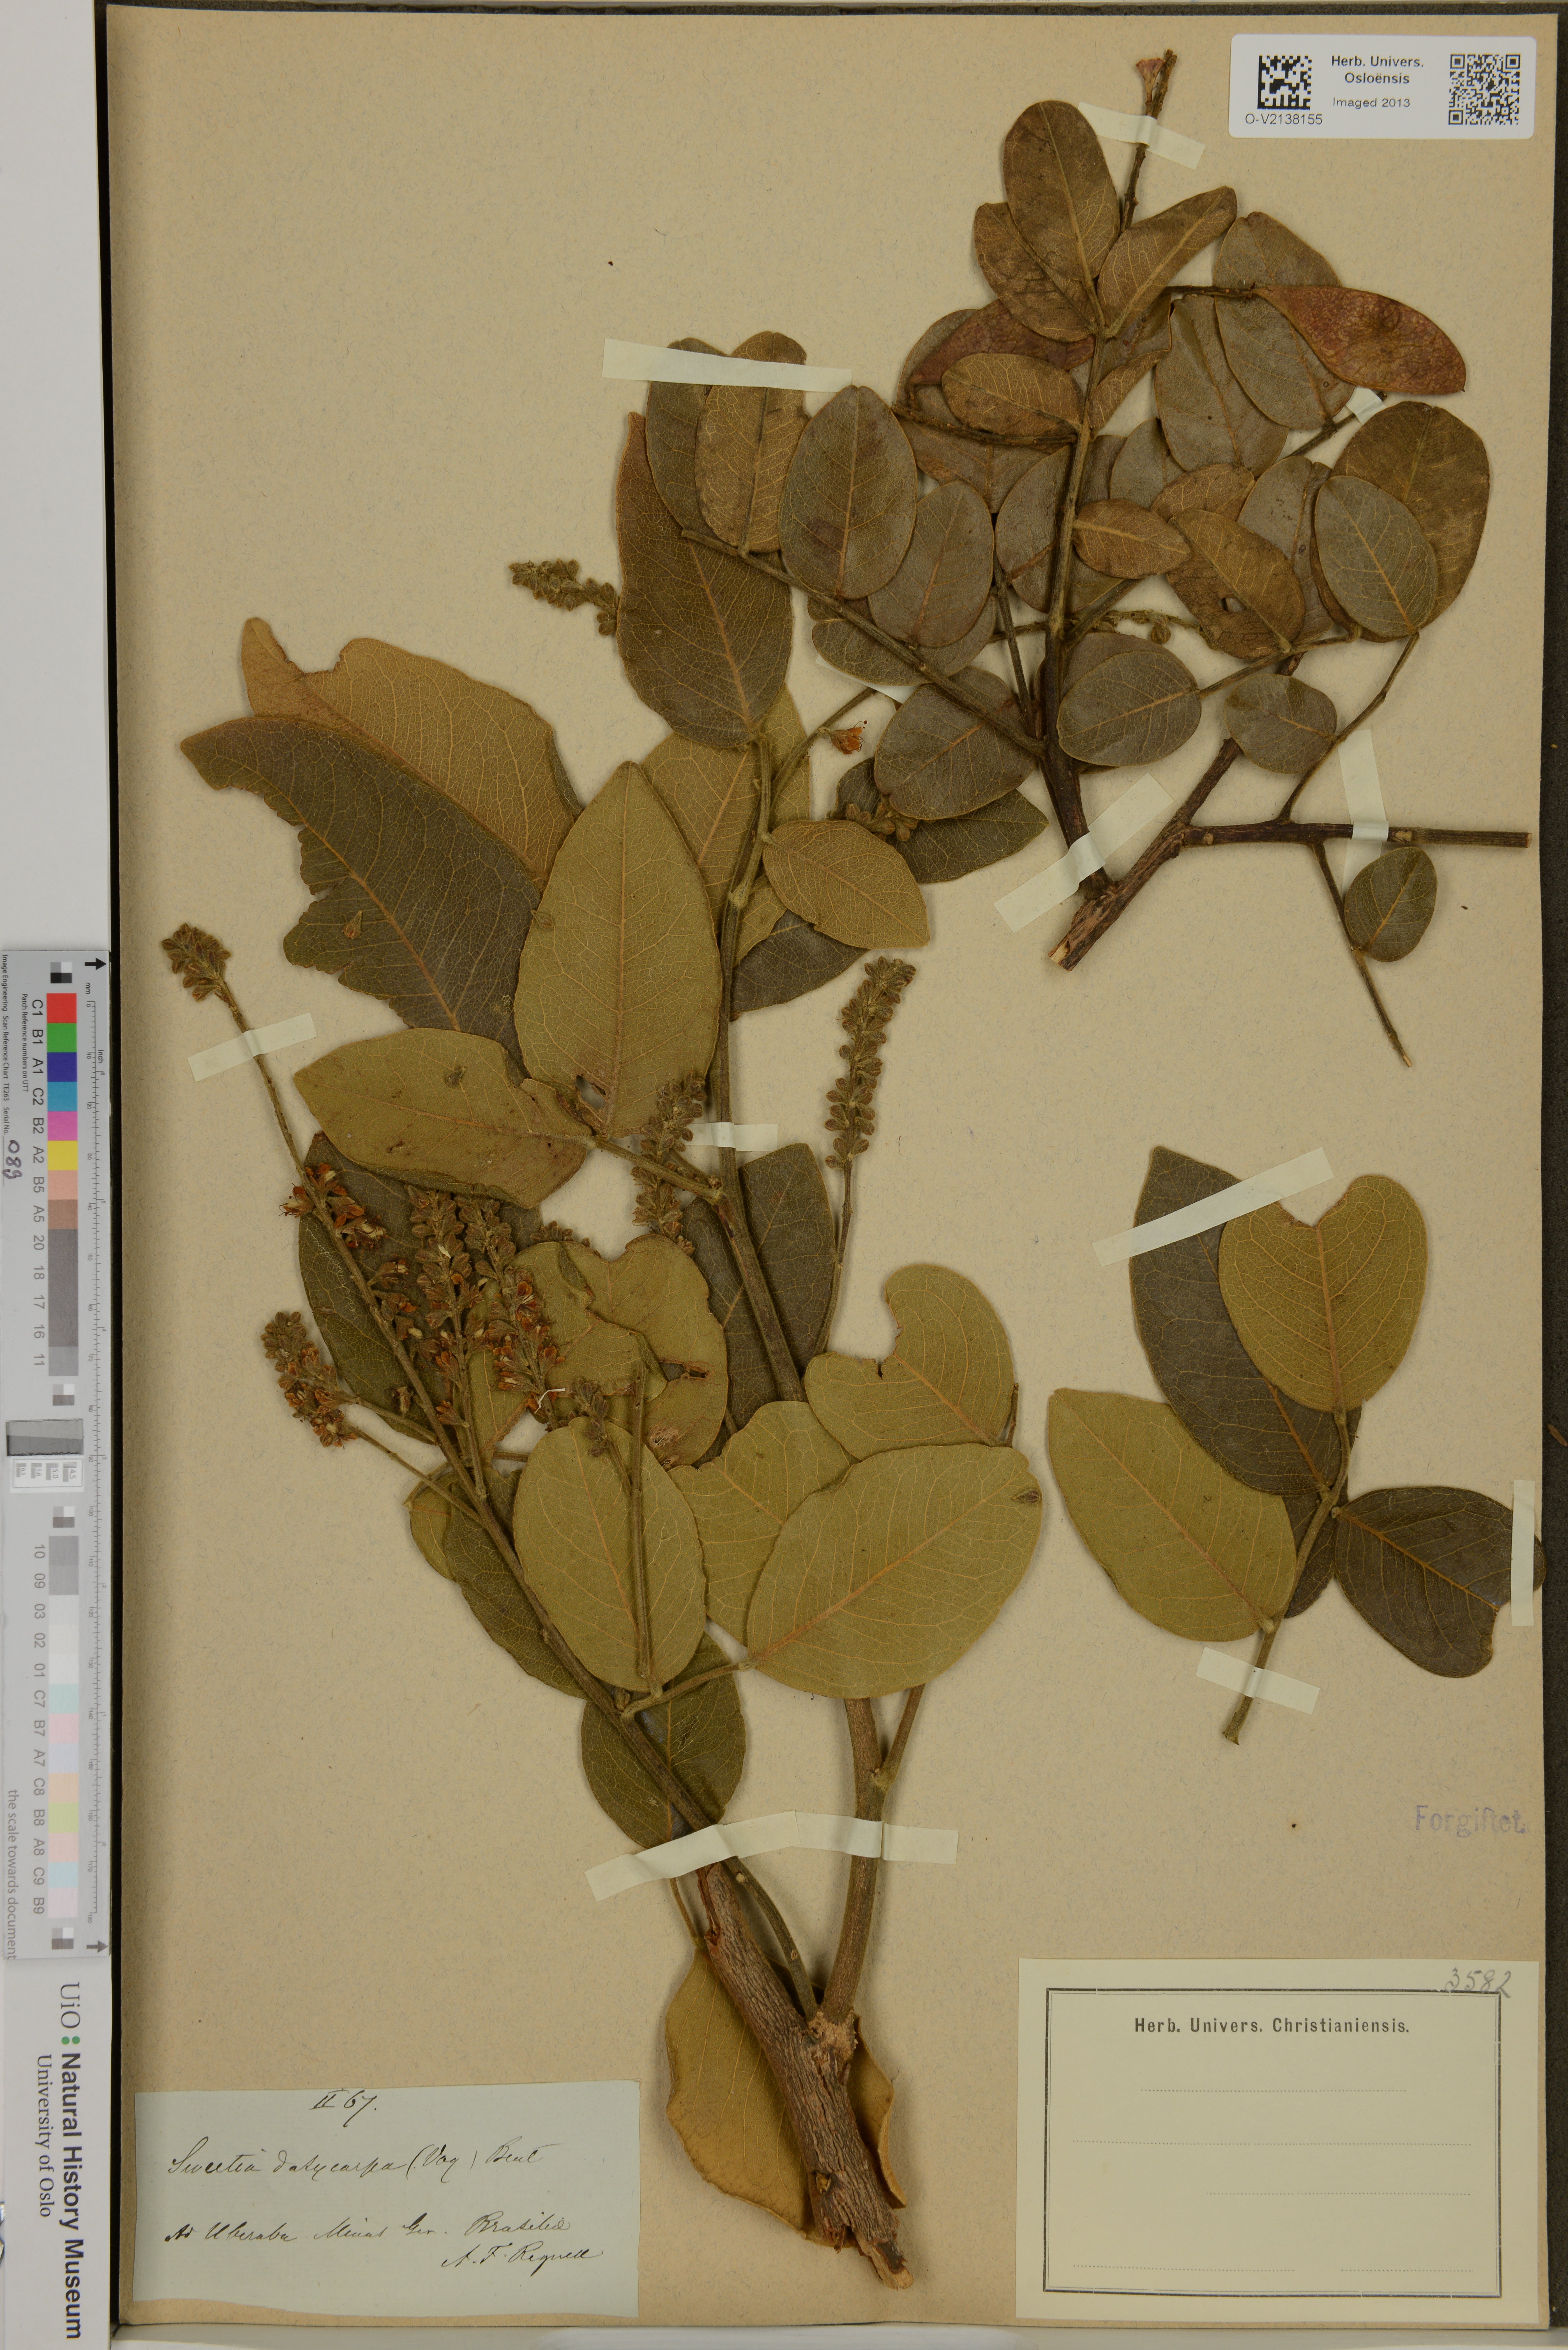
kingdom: Plantae
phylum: Tracheophyta
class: Magnoliopsida
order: Fabales
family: Fabaceae
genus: Leptolobium
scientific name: Leptolobium dasycarpum
